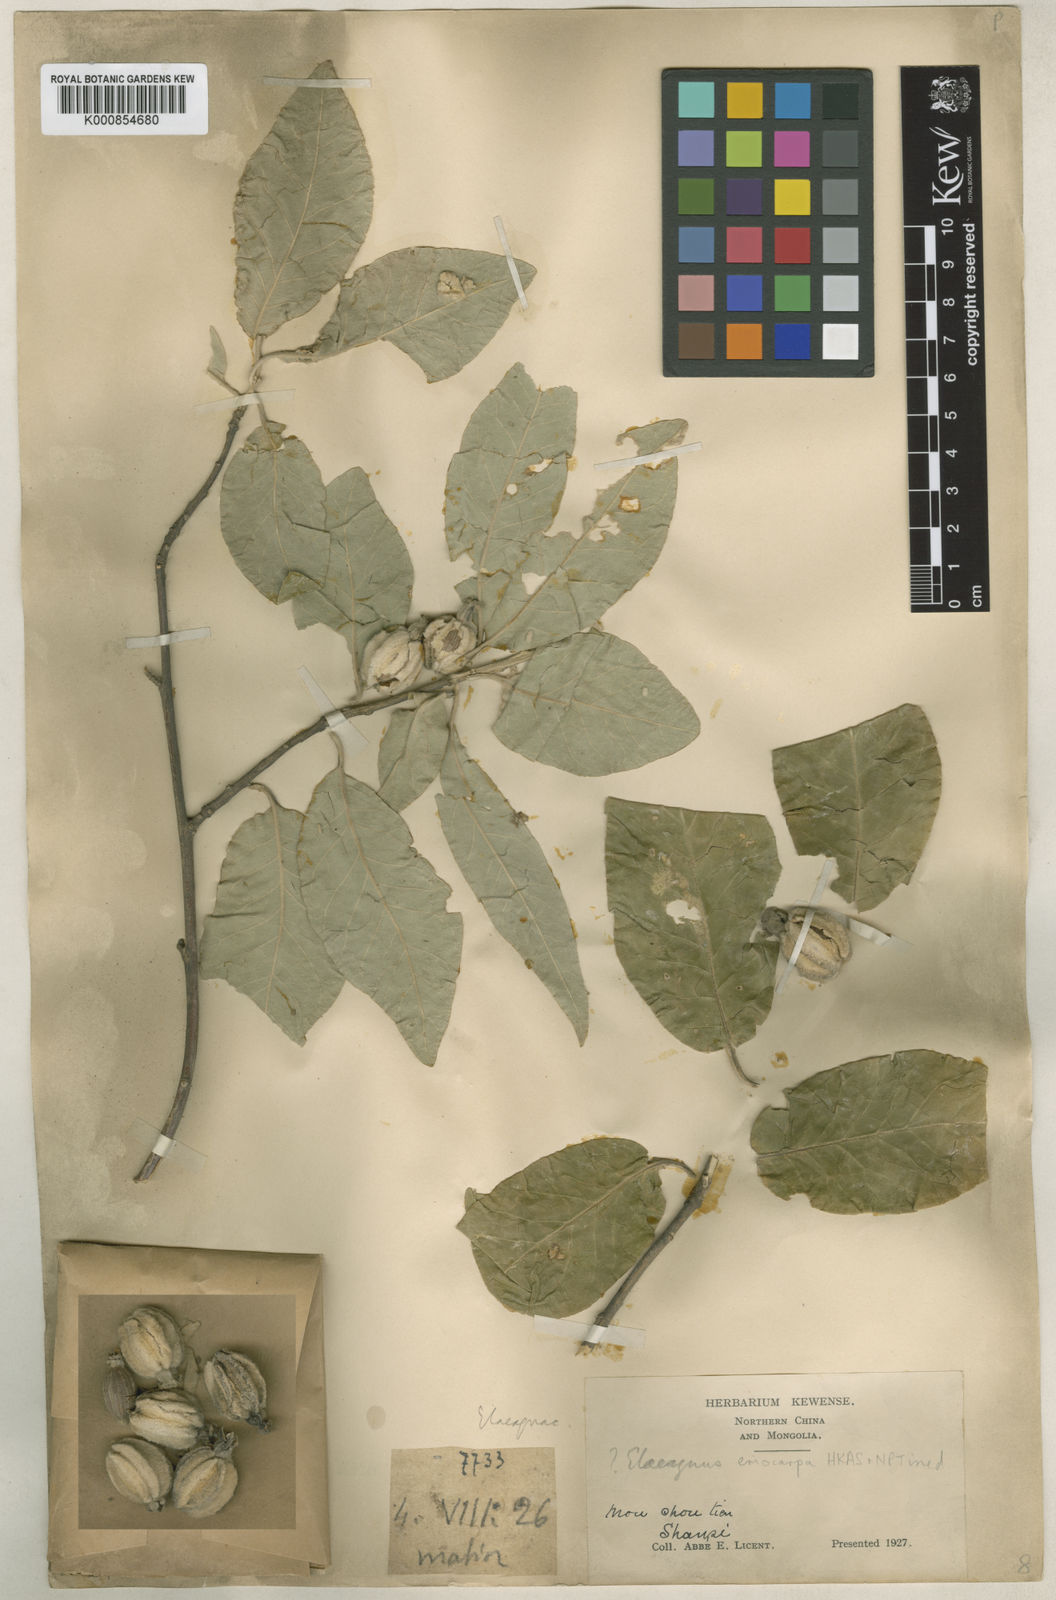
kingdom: Plantae
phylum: Tracheophyta
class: Magnoliopsida
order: Rosales
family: Elaeagnaceae
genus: Elaeagnus
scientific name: Elaeagnus
